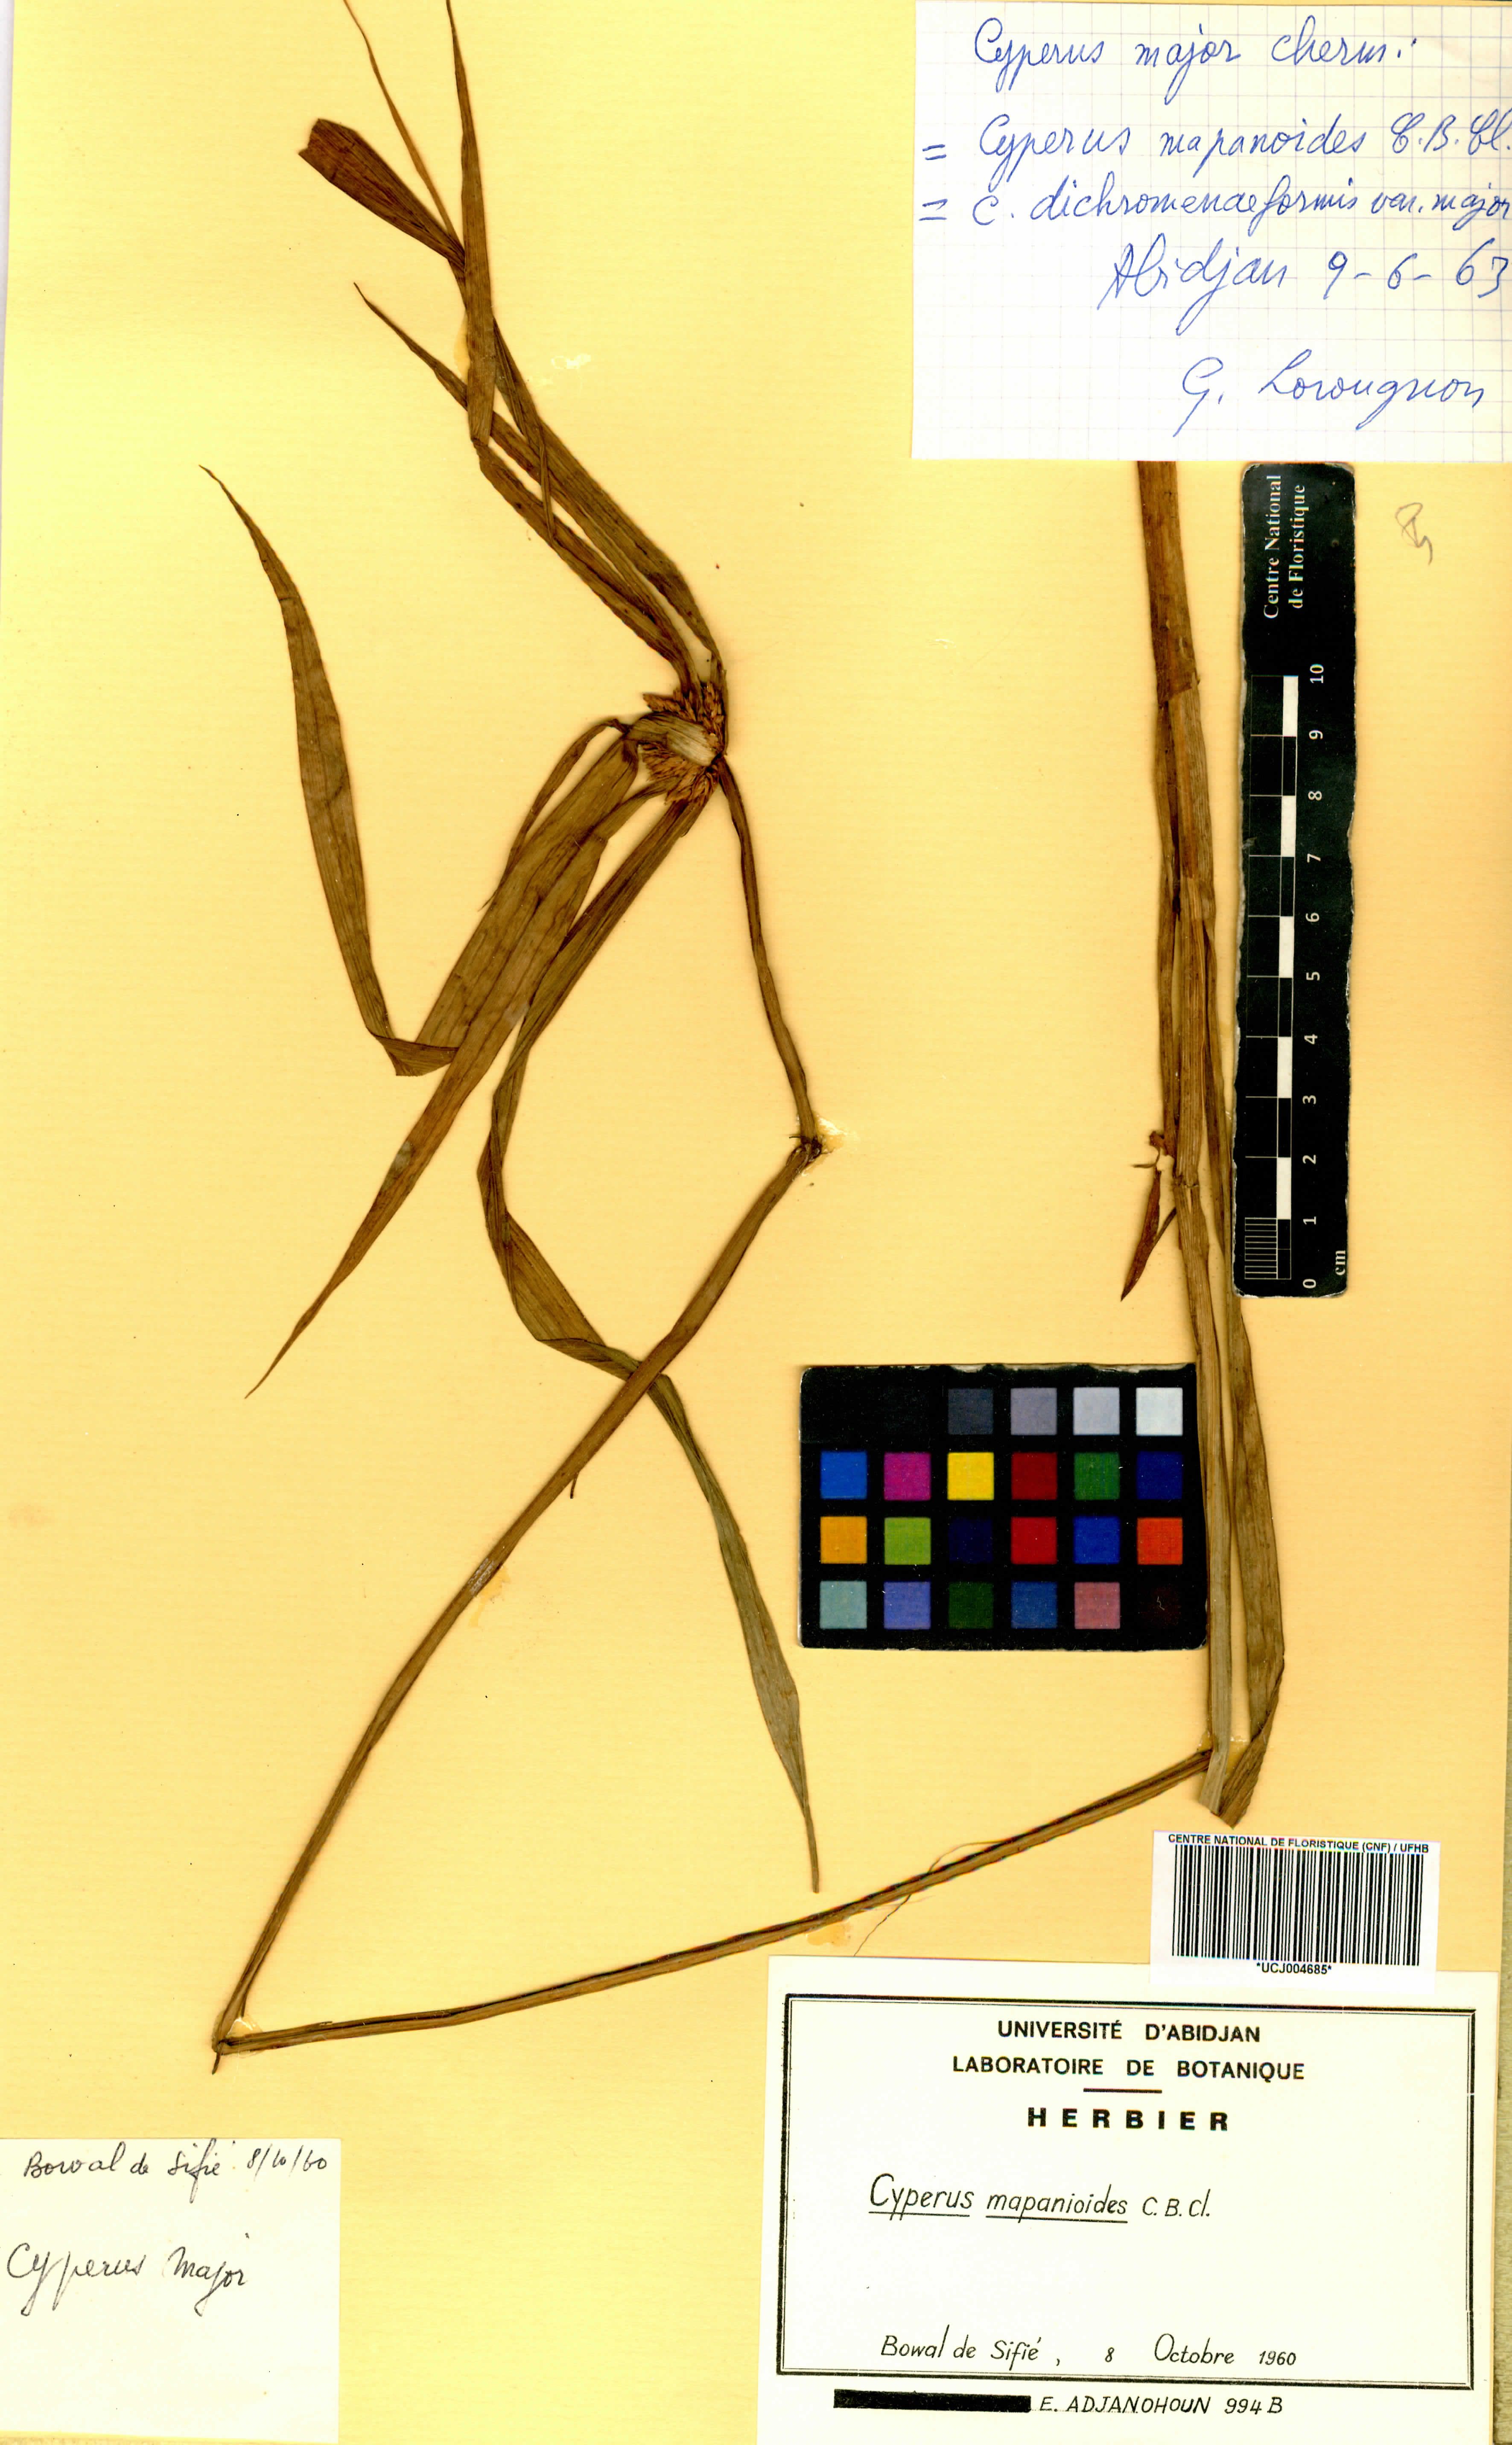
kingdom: Plantae
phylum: Tracheophyta
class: Liliopsida
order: Poales
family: Cyperaceae
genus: Cyperus
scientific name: Cyperus mapanioides
